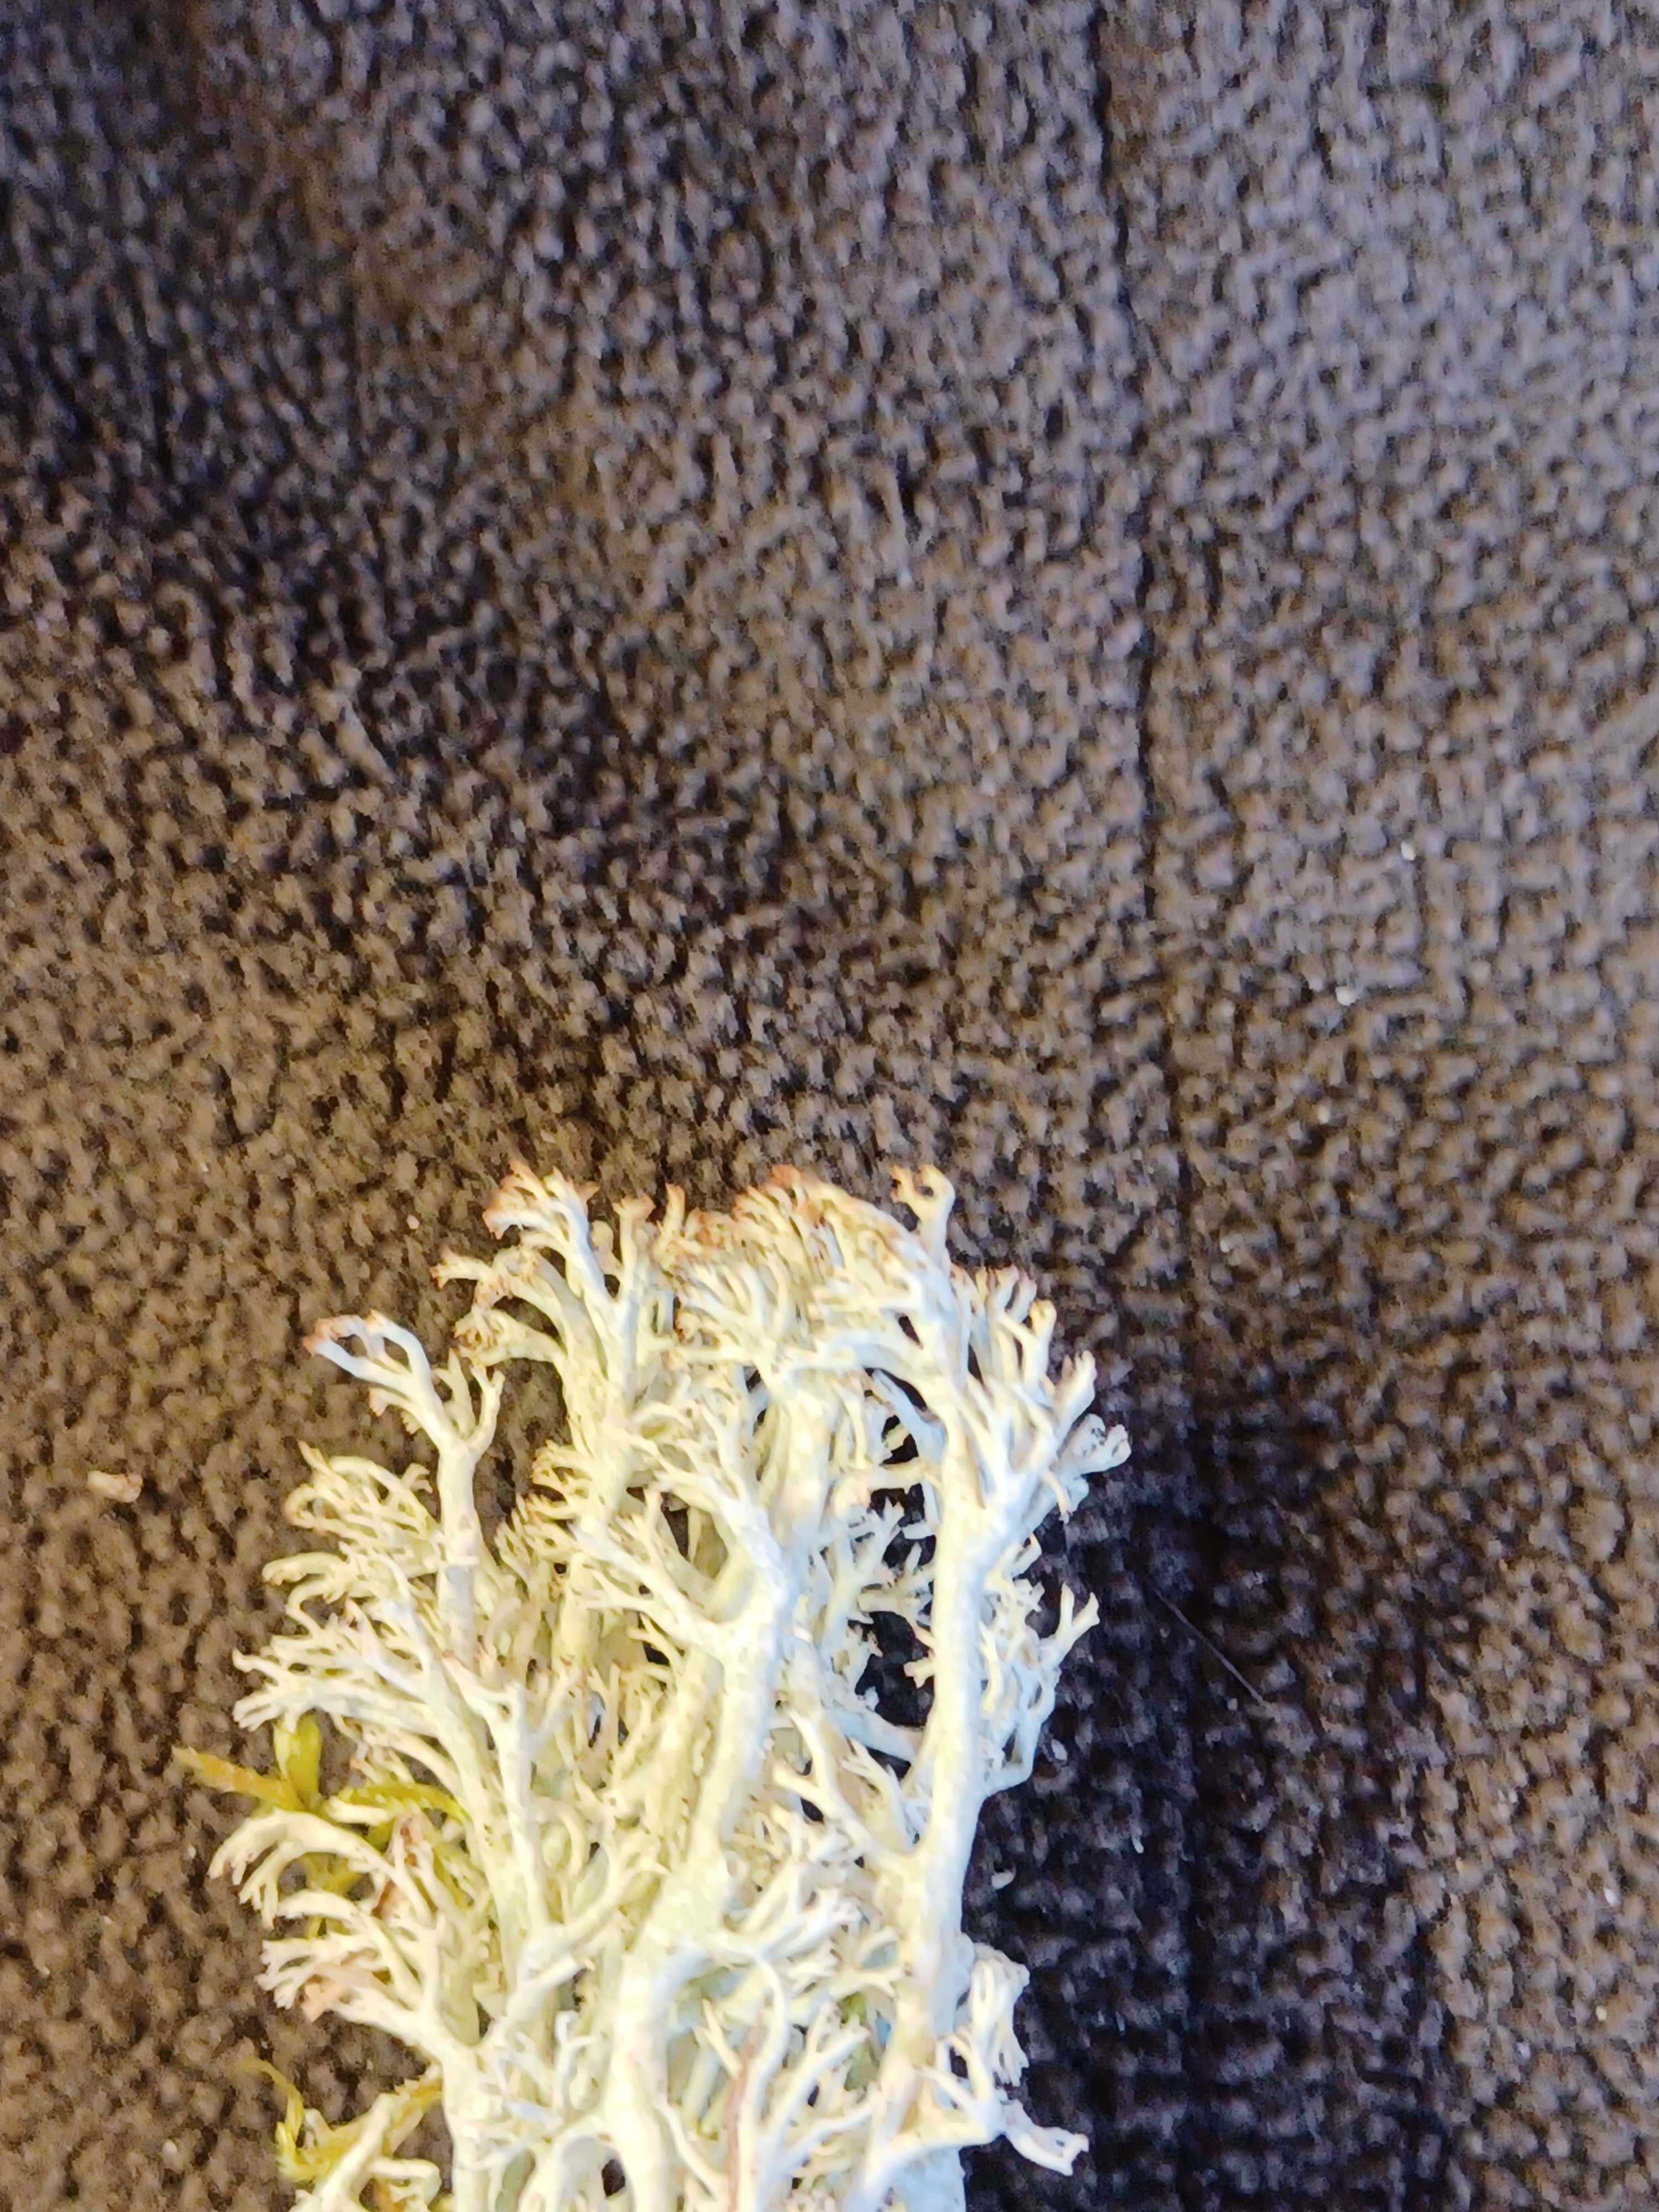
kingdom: Fungi
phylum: Ascomycota
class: Lecanoromycetes
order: Lecanorales
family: Cladoniaceae
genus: Cladonia
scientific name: Cladonia ciliata
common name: spinkel rensdyrlav
